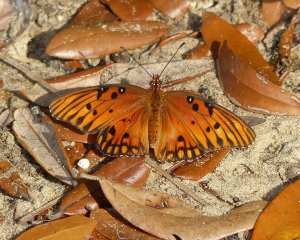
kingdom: Animalia
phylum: Arthropoda
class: Insecta
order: Lepidoptera
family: Nymphalidae
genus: Dione
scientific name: Dione vanillae
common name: Gulf Fritillary
